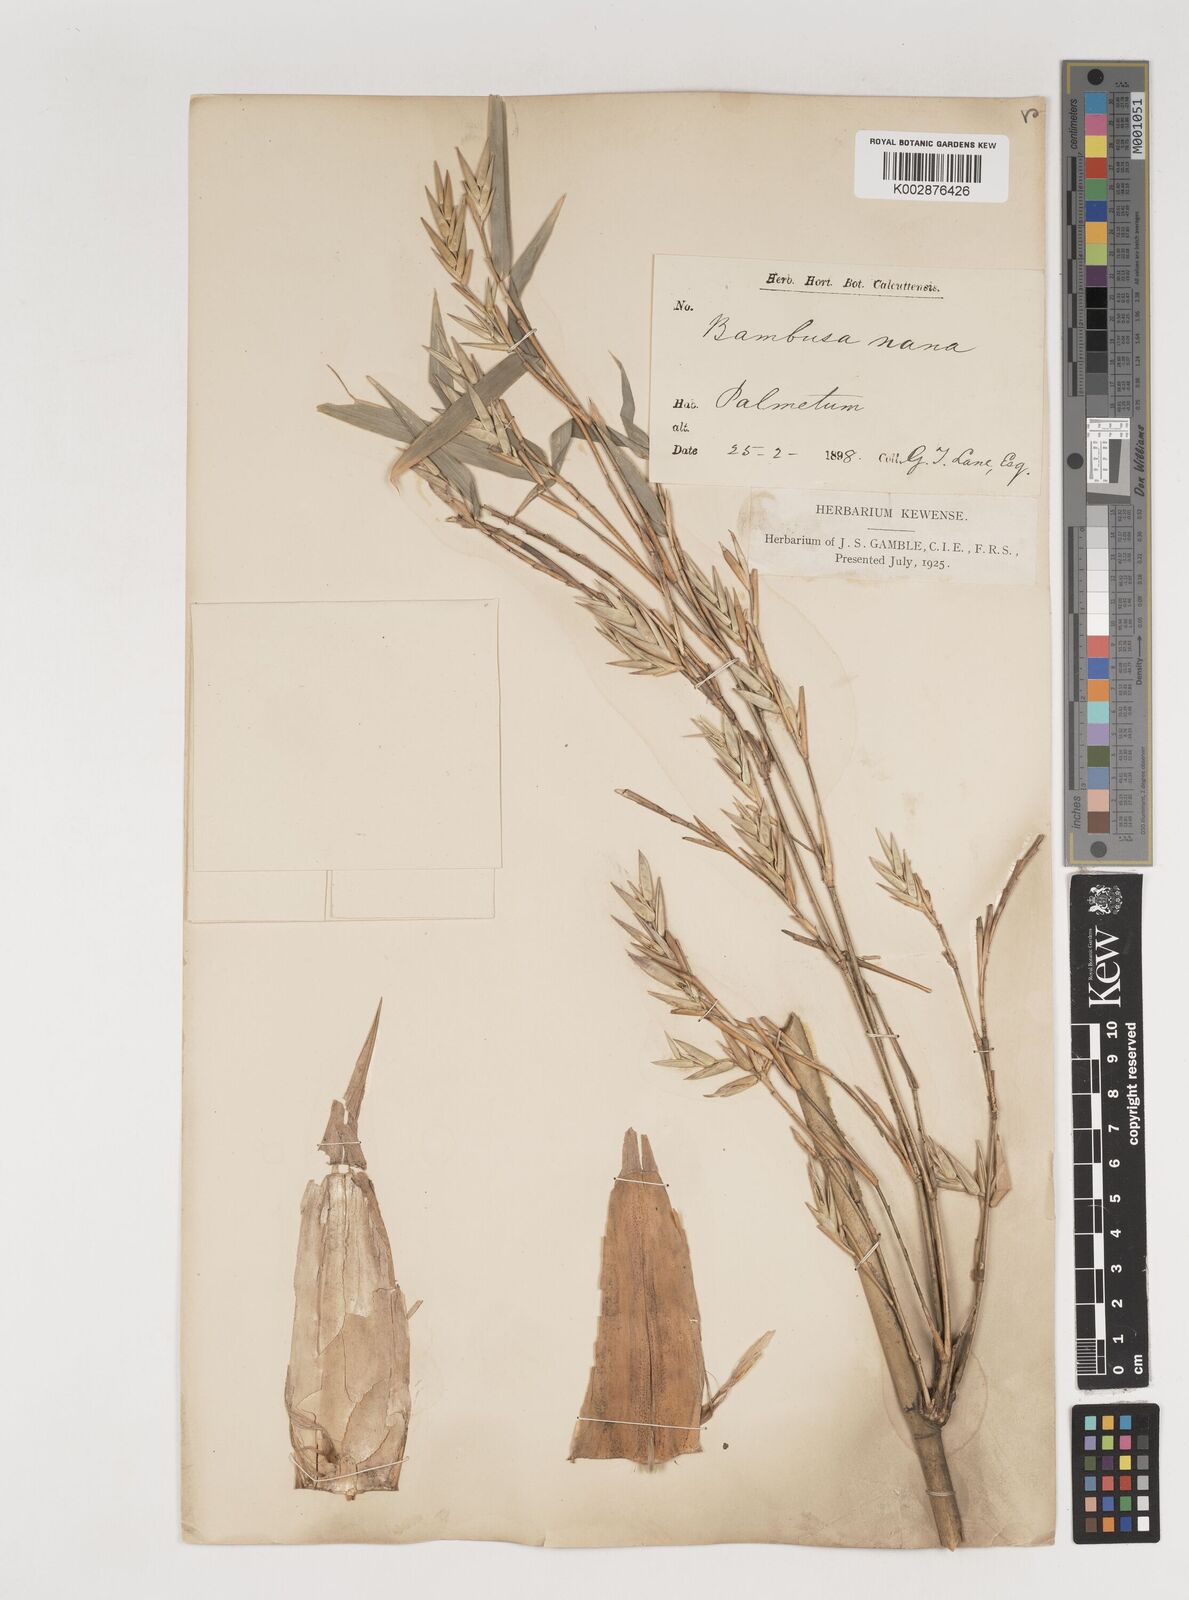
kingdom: Plantae
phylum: Tracheophyta
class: Liliopsida
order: Poales
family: Poaceae
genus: Bambusa
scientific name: Bambusa multiplex
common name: Hedge bamboo
